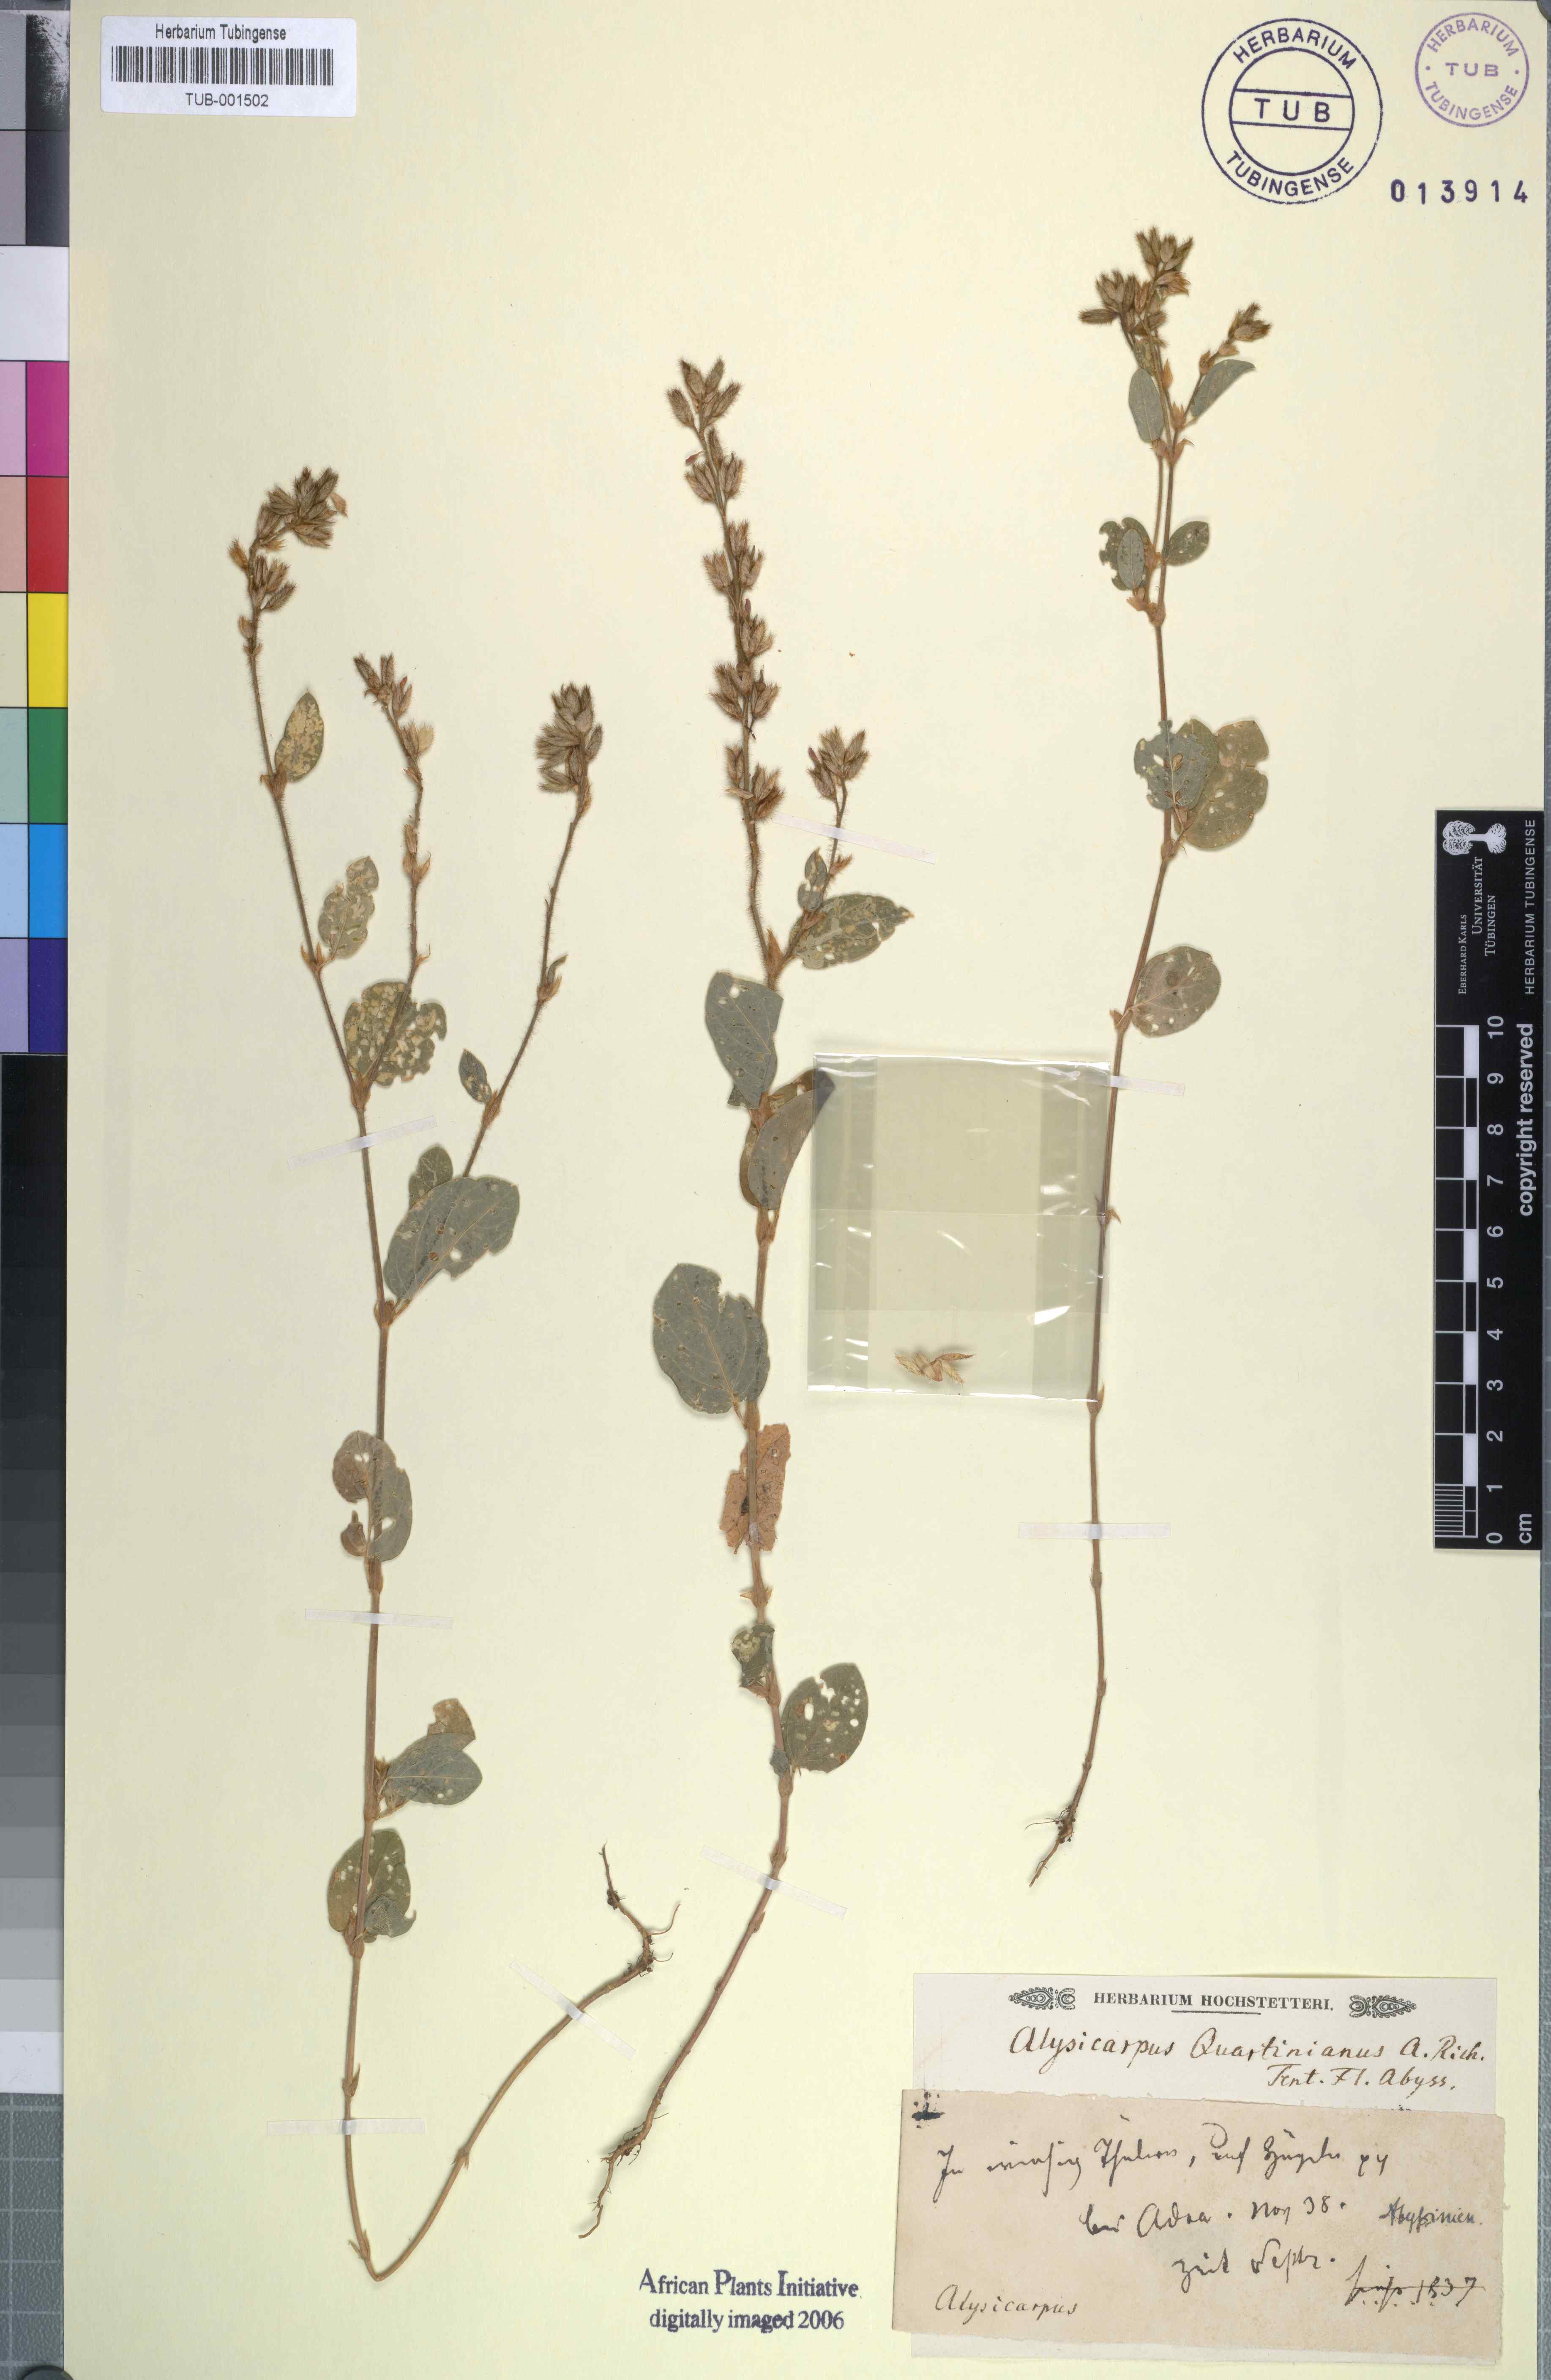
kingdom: Plantae
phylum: Tracheophyta
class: Magnoliopsida
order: Fabales
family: Fabaceae
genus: Alysicarpus
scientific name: Alysicarpus rugosus
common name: Red moneywort
